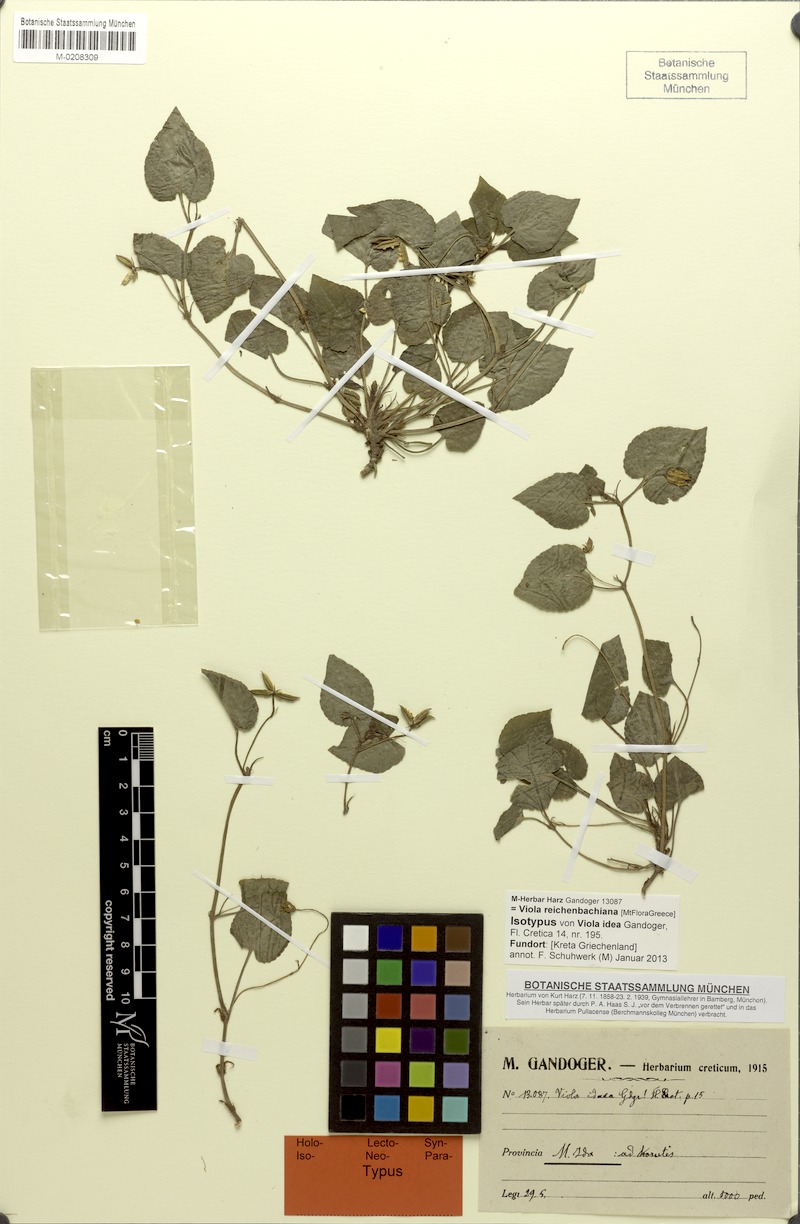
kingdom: Plantae
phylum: Tracheophyta
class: Magnoliopsida
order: Malpighiales
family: Violaceae
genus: Viola
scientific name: Viola reichenbachiana
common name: Early dog-violet
